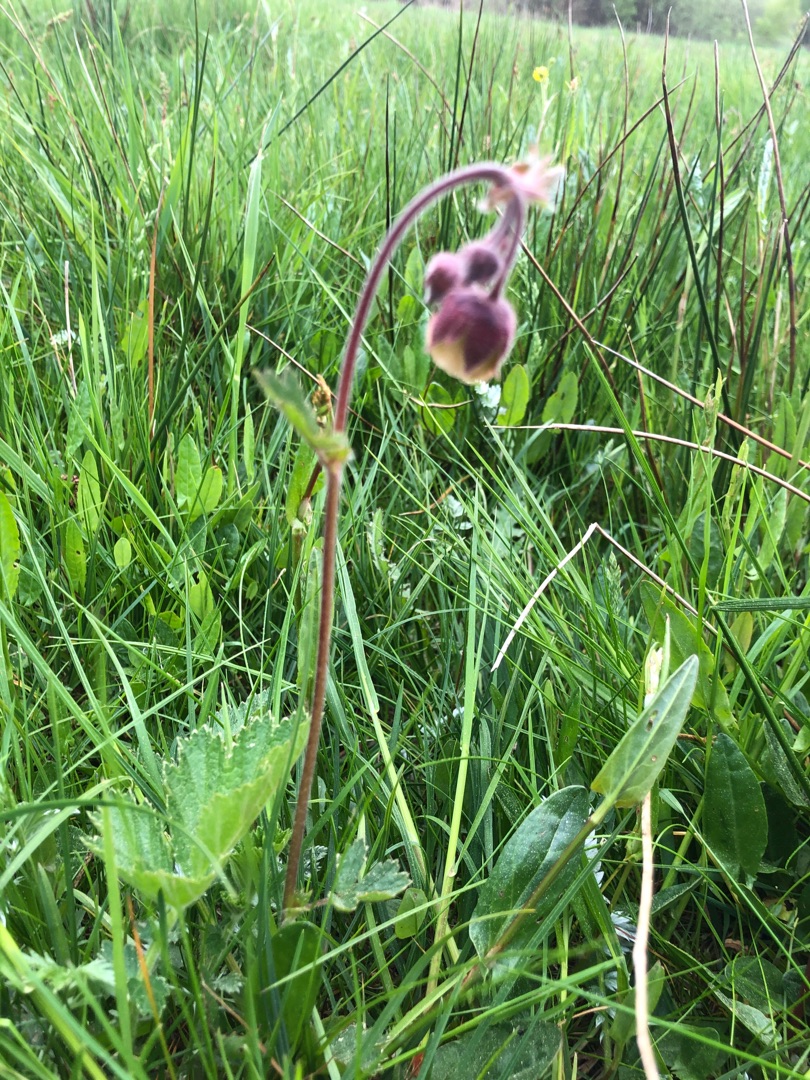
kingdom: Plantae
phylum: Tracheophyta
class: Magnoliopsida
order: Rosales
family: Rosaceae
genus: Geum
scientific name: Geum rivale
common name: Eng-nellikerod
